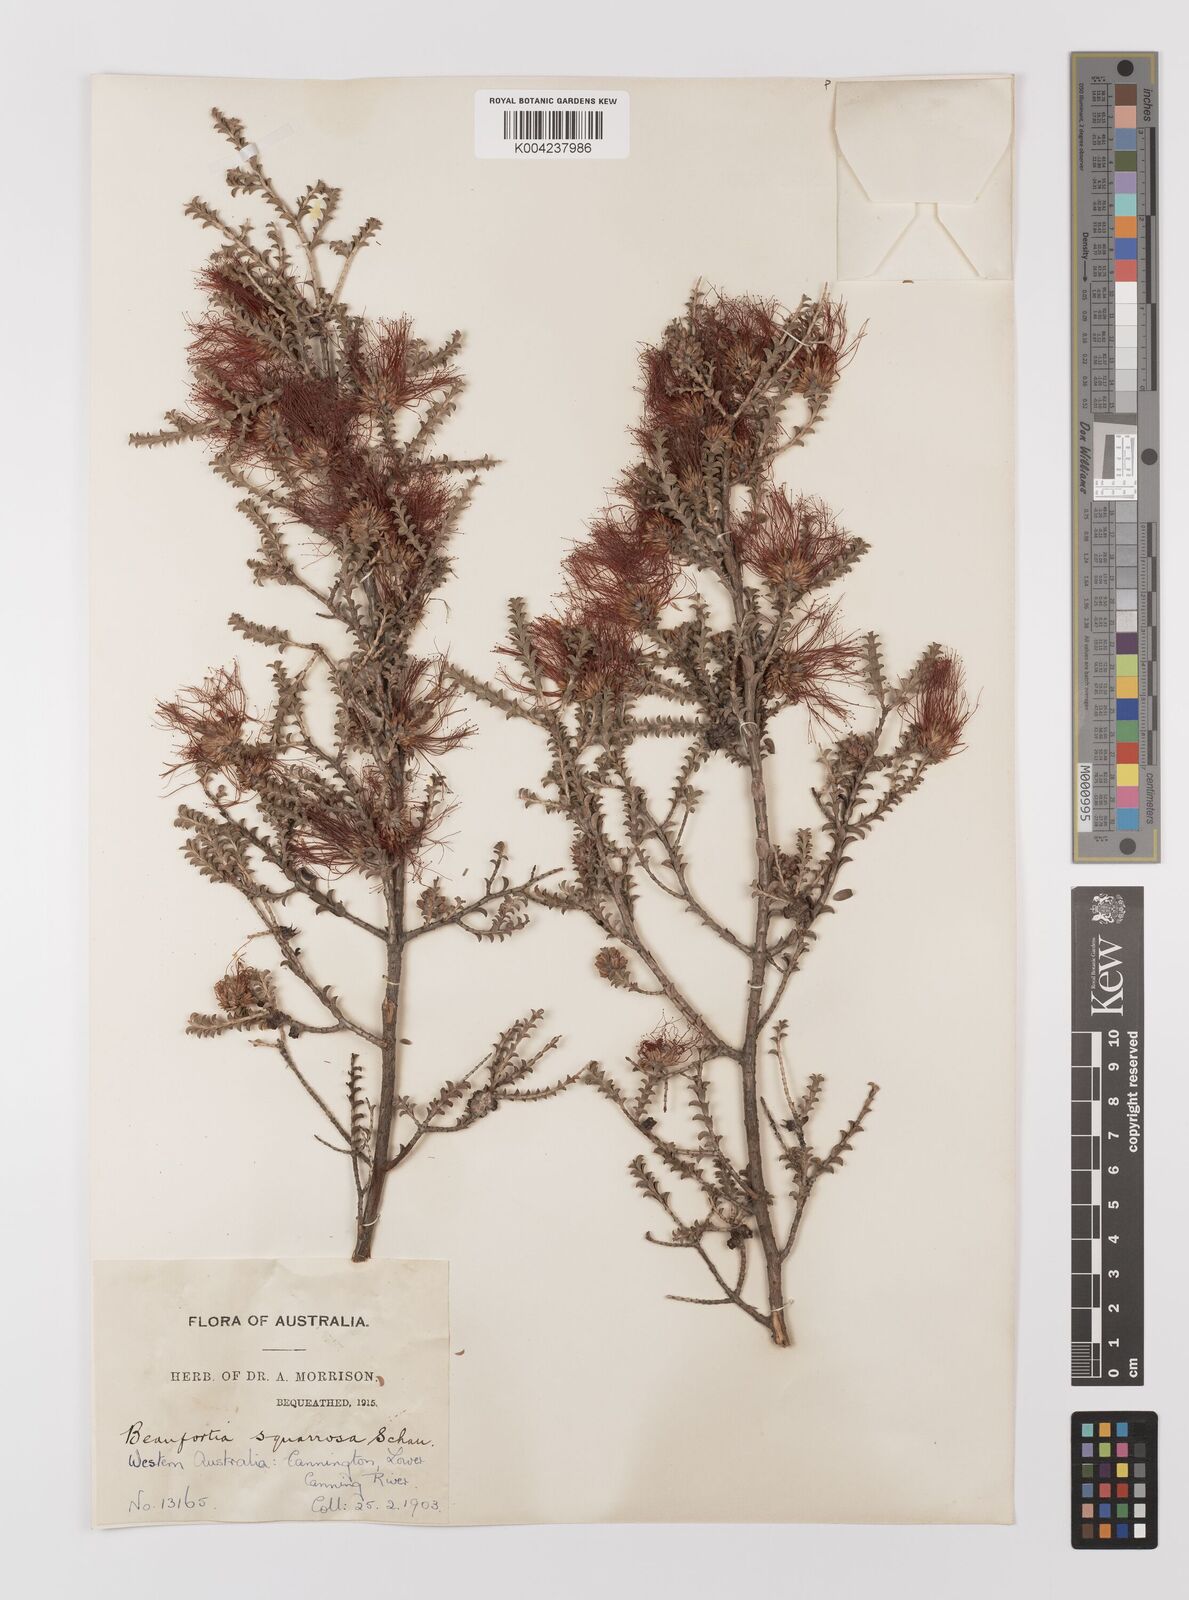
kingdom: Plantae
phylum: Tracheophyta
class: Magnoliopsida
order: Myrtales
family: Myrtaceae
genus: Melaleuca
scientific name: Melaleuca pulcherrima
